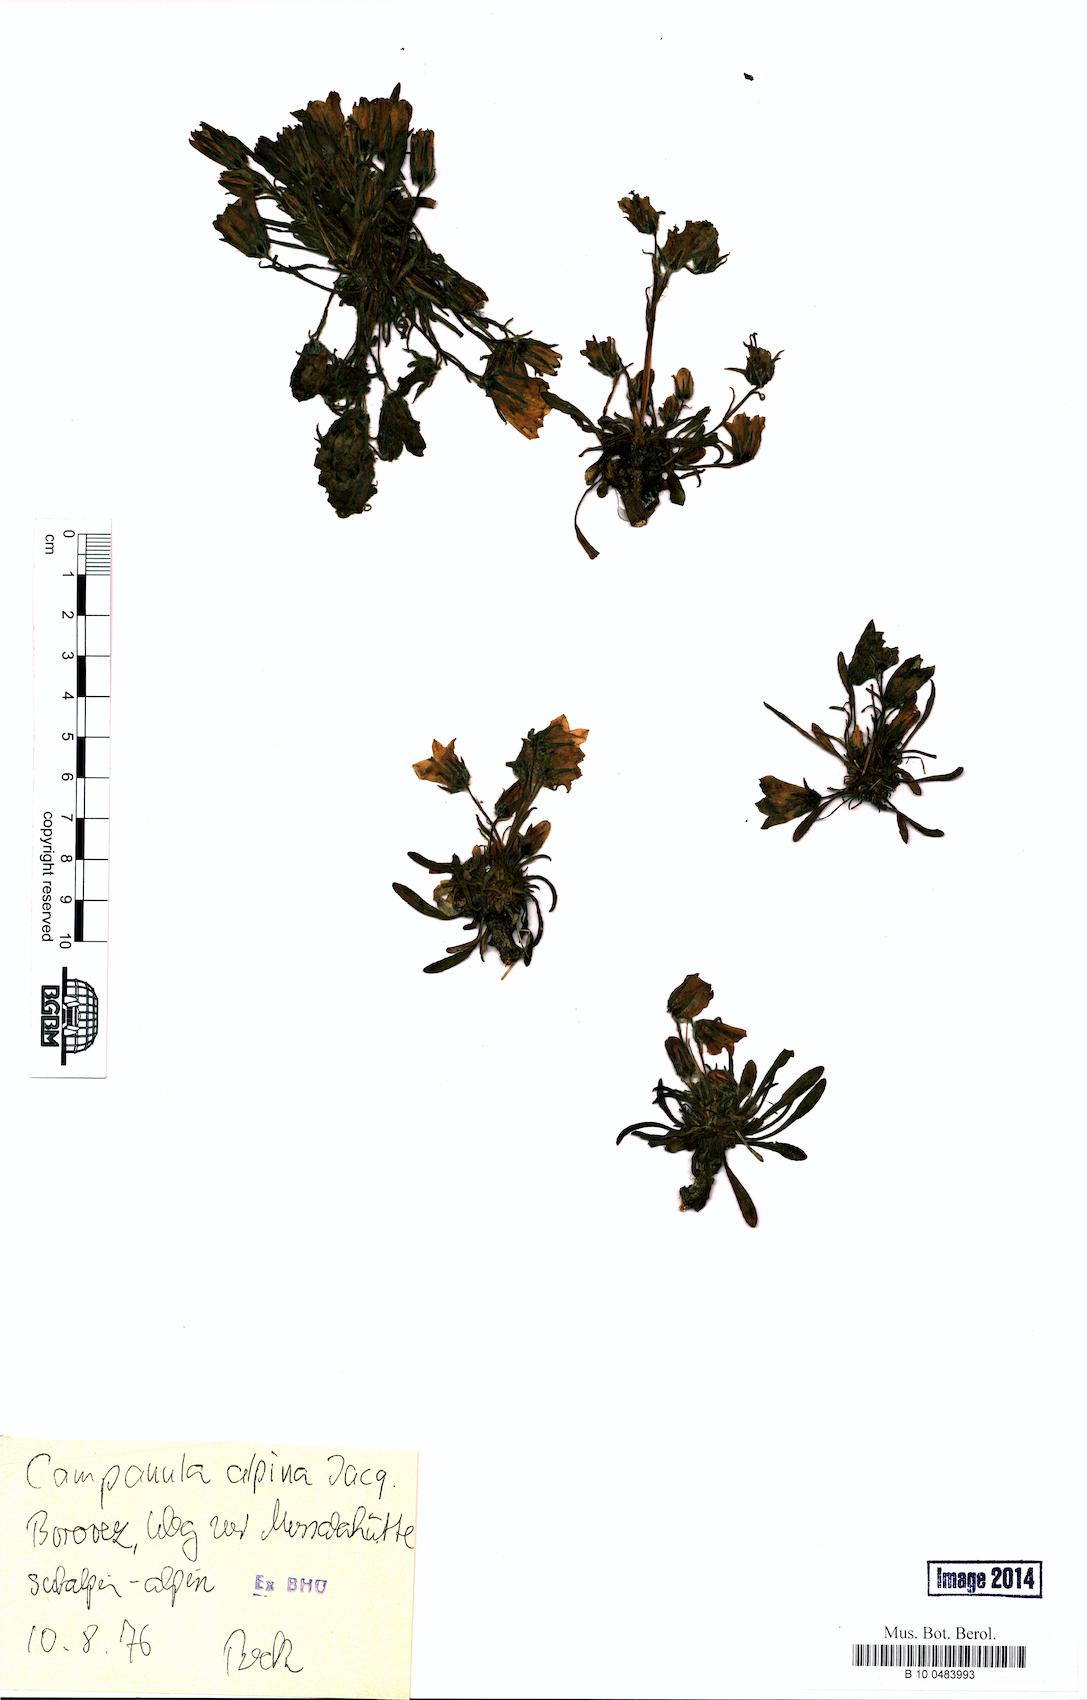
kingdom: Plantae
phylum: Tracheophyta
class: Magnoliopsida
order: Asterales
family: Campanulaceae
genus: Campanula
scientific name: Campanula alpina
